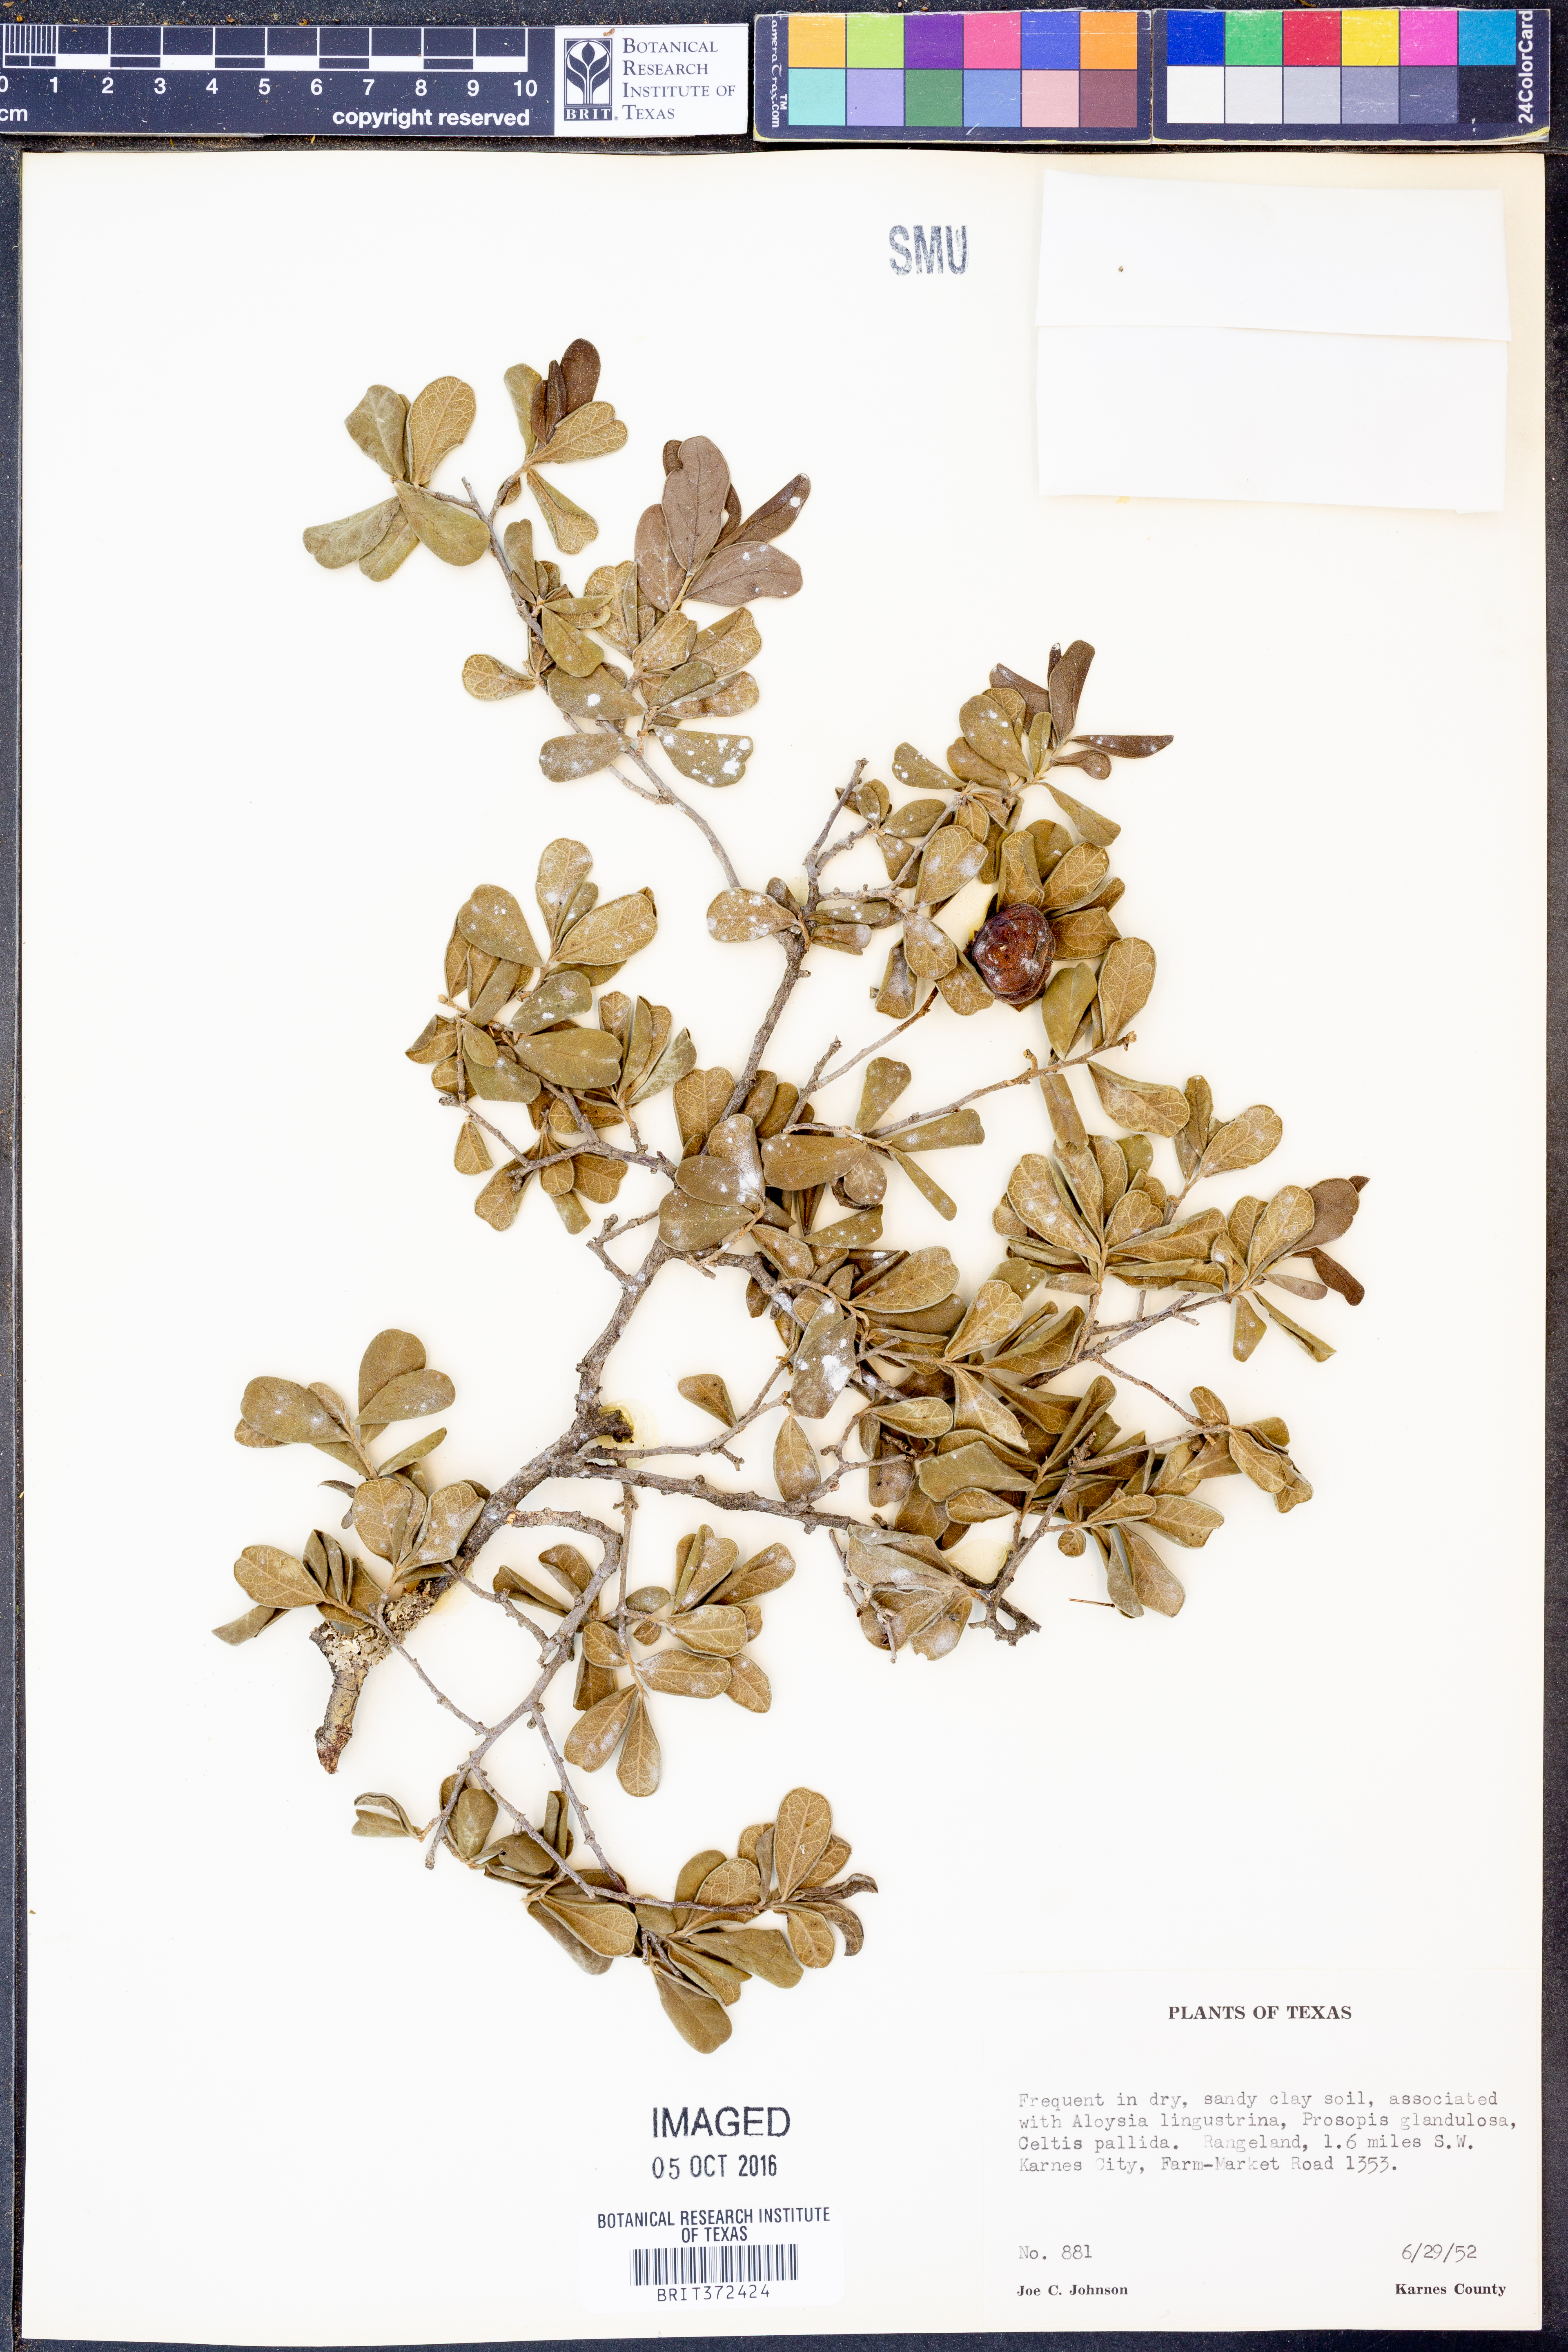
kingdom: Plantae
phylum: Tracheophyta
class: Magnoliopsida
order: Ericales
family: Ebenaceae
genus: Diospyros
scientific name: Diospyros texana
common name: Texas persimmon
